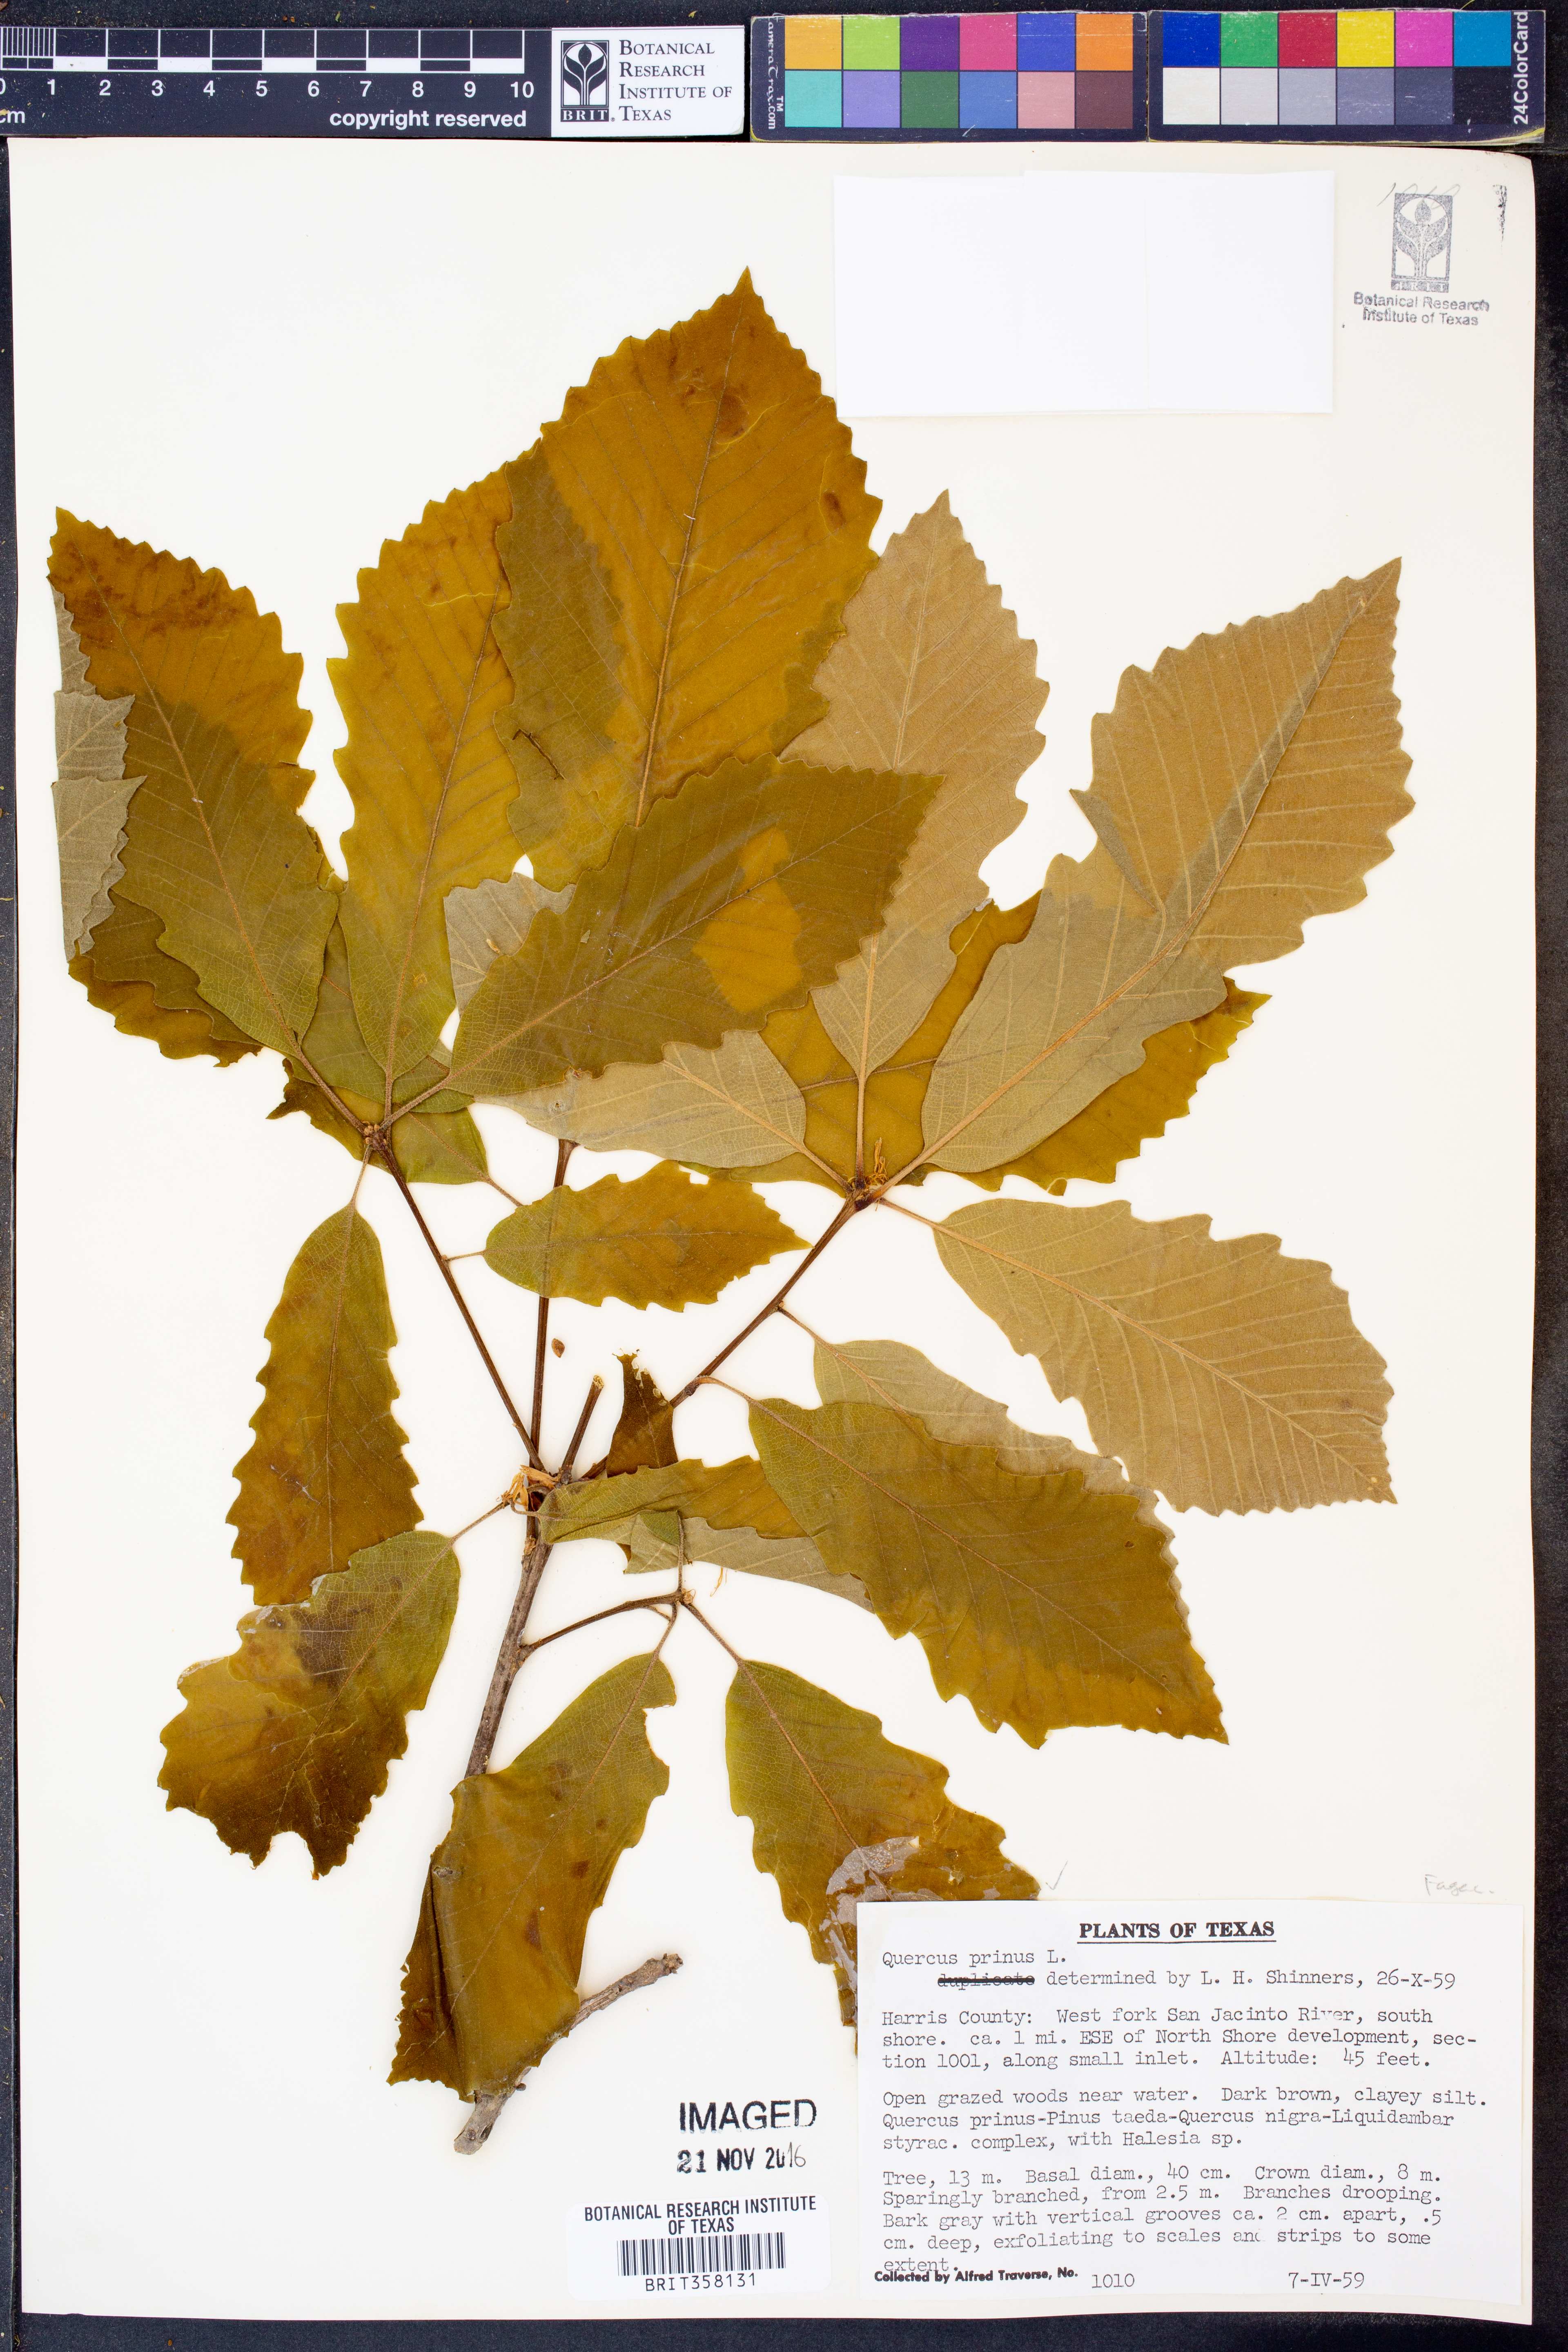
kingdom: Plantae
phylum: Tracheophyta
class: Magnoliopsida
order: Fagales
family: Fagaceae
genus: Quercus
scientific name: Quercus michauxii
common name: Swamp chestnut oak
